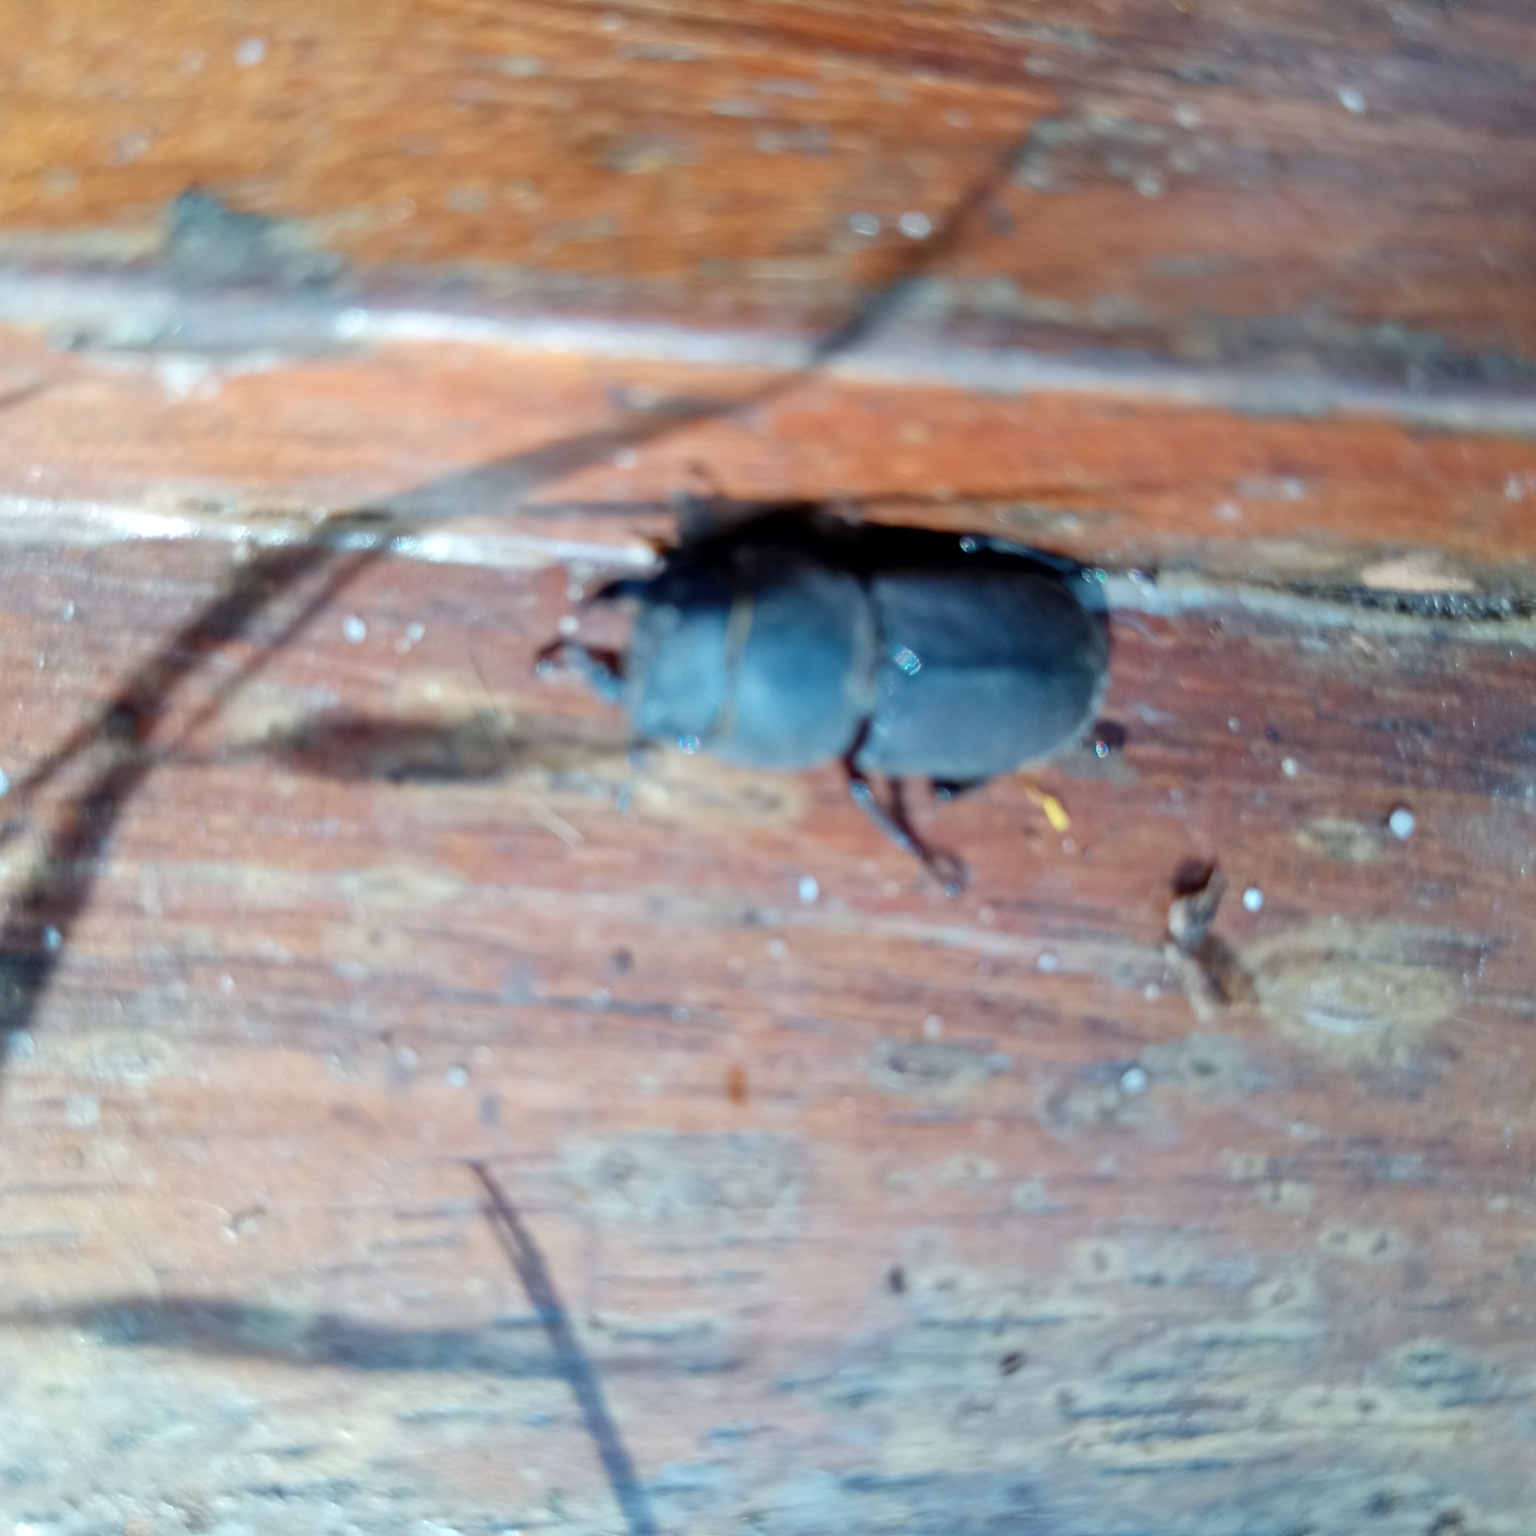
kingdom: Animalia
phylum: Arthropoda
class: Insecta
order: Coleoptera
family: Lucanidae
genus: Dorcus
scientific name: Dorcus parallelipipedus
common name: Bøghjort
